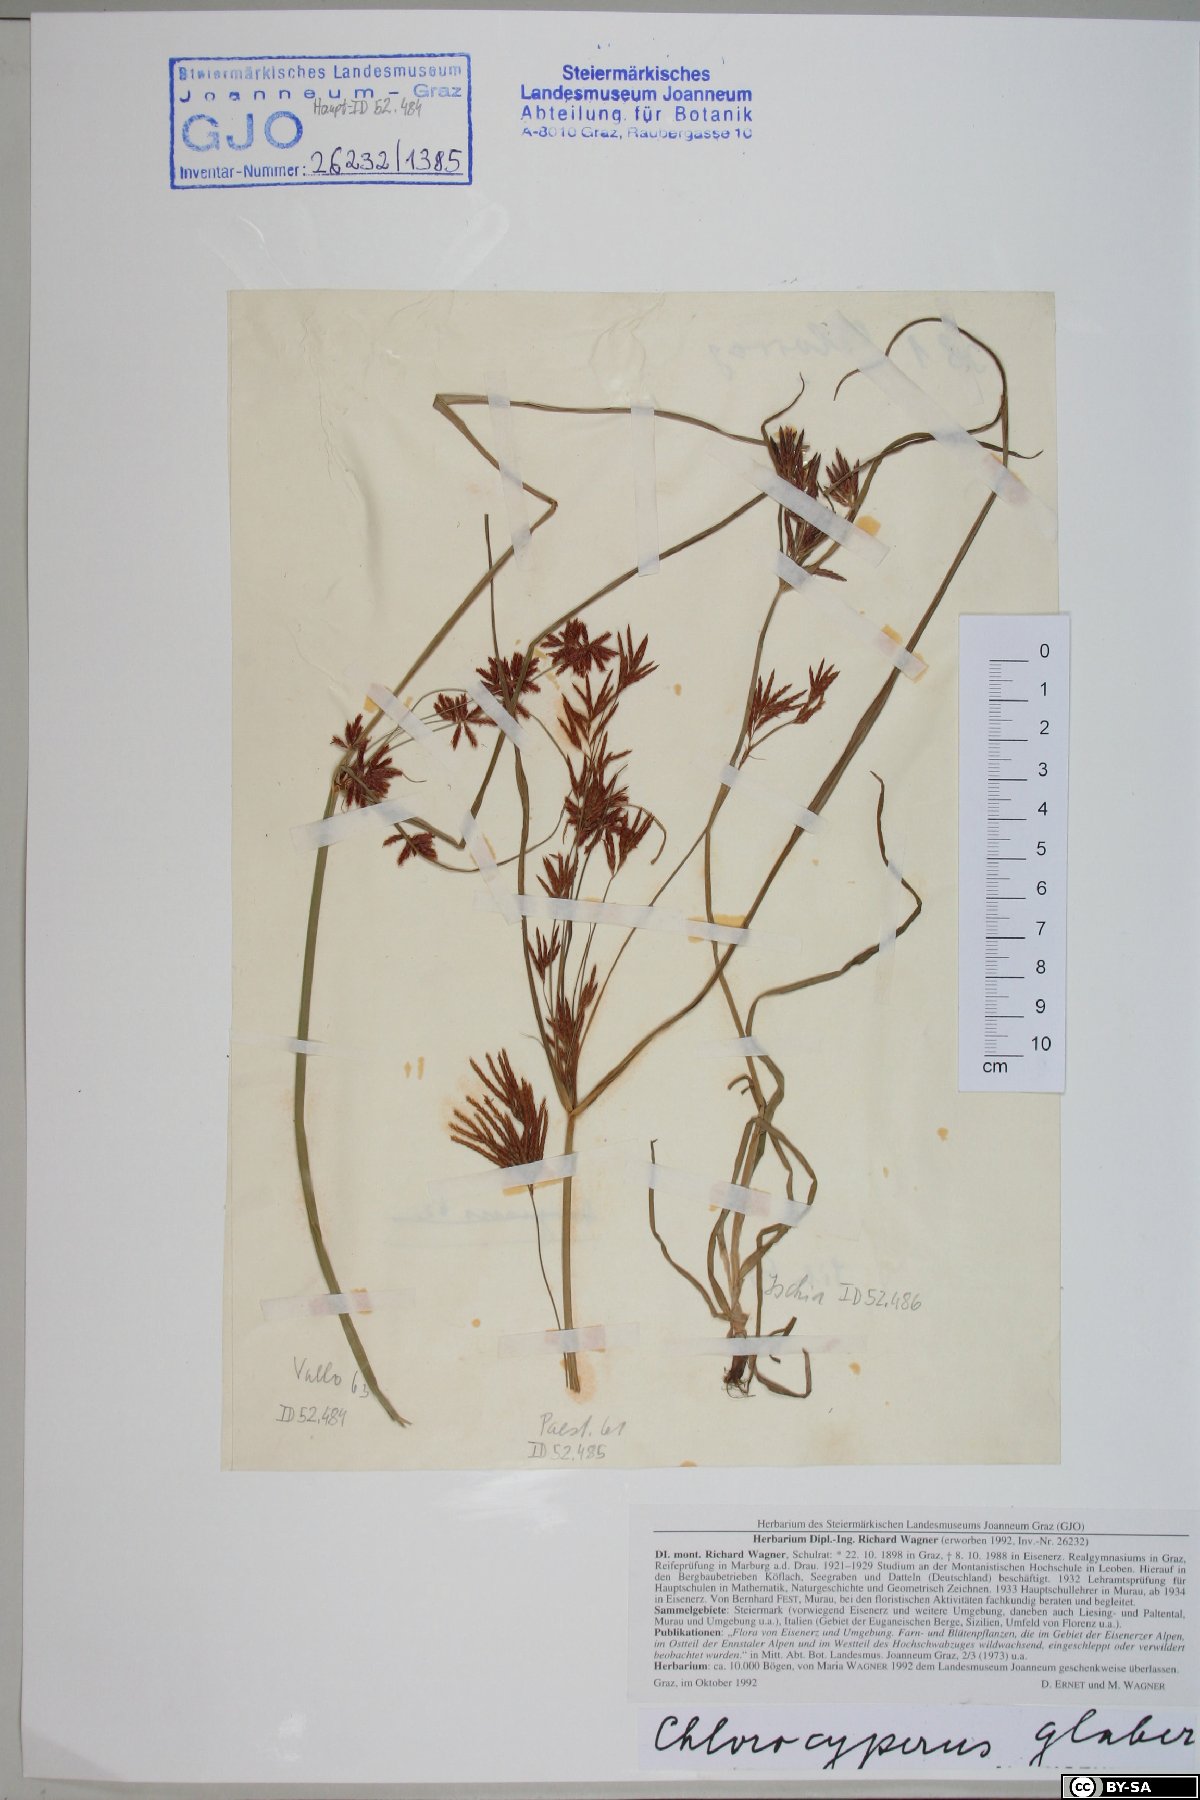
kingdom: Plantae
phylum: Tracheophyta
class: Liliopsida
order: Poales
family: Cyperaceae
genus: Cyperus
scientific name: Cyperus glaber
